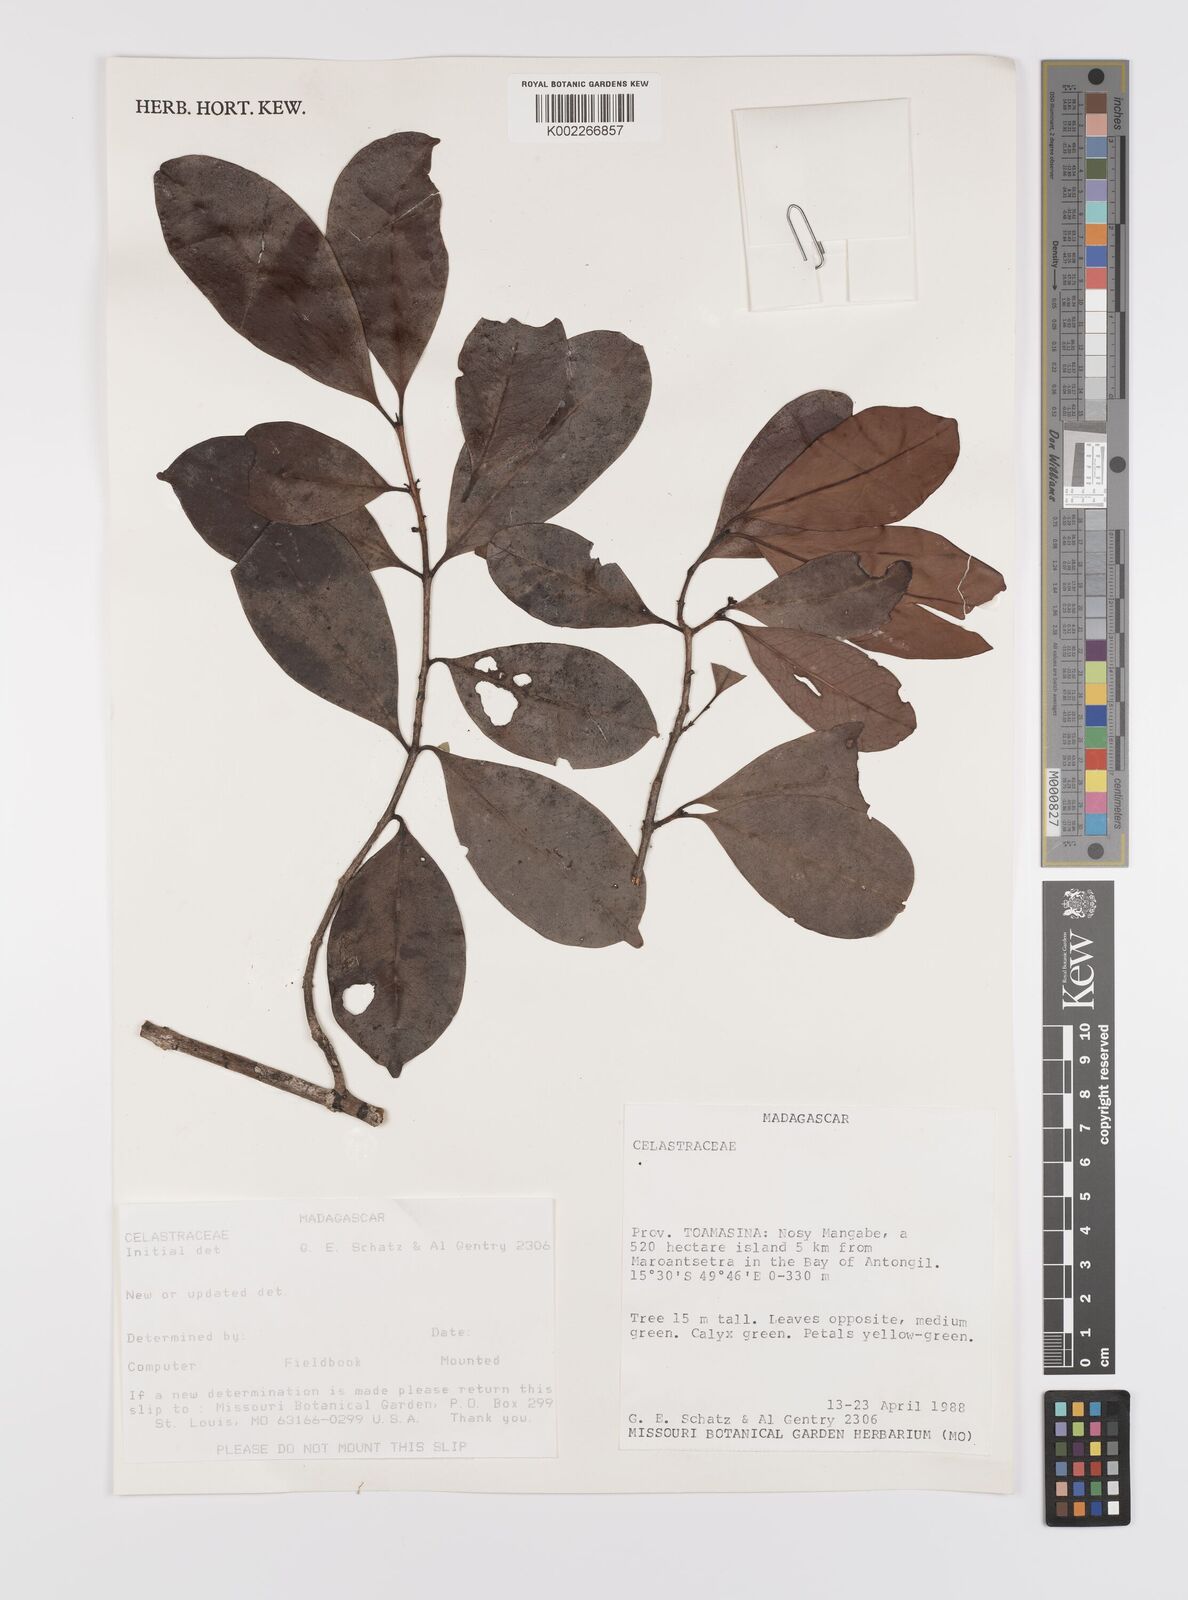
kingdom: Plantae
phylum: Tracheophyta
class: Magnoliopsida
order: Celastrales
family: Celastraceae
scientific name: Celastraceae
